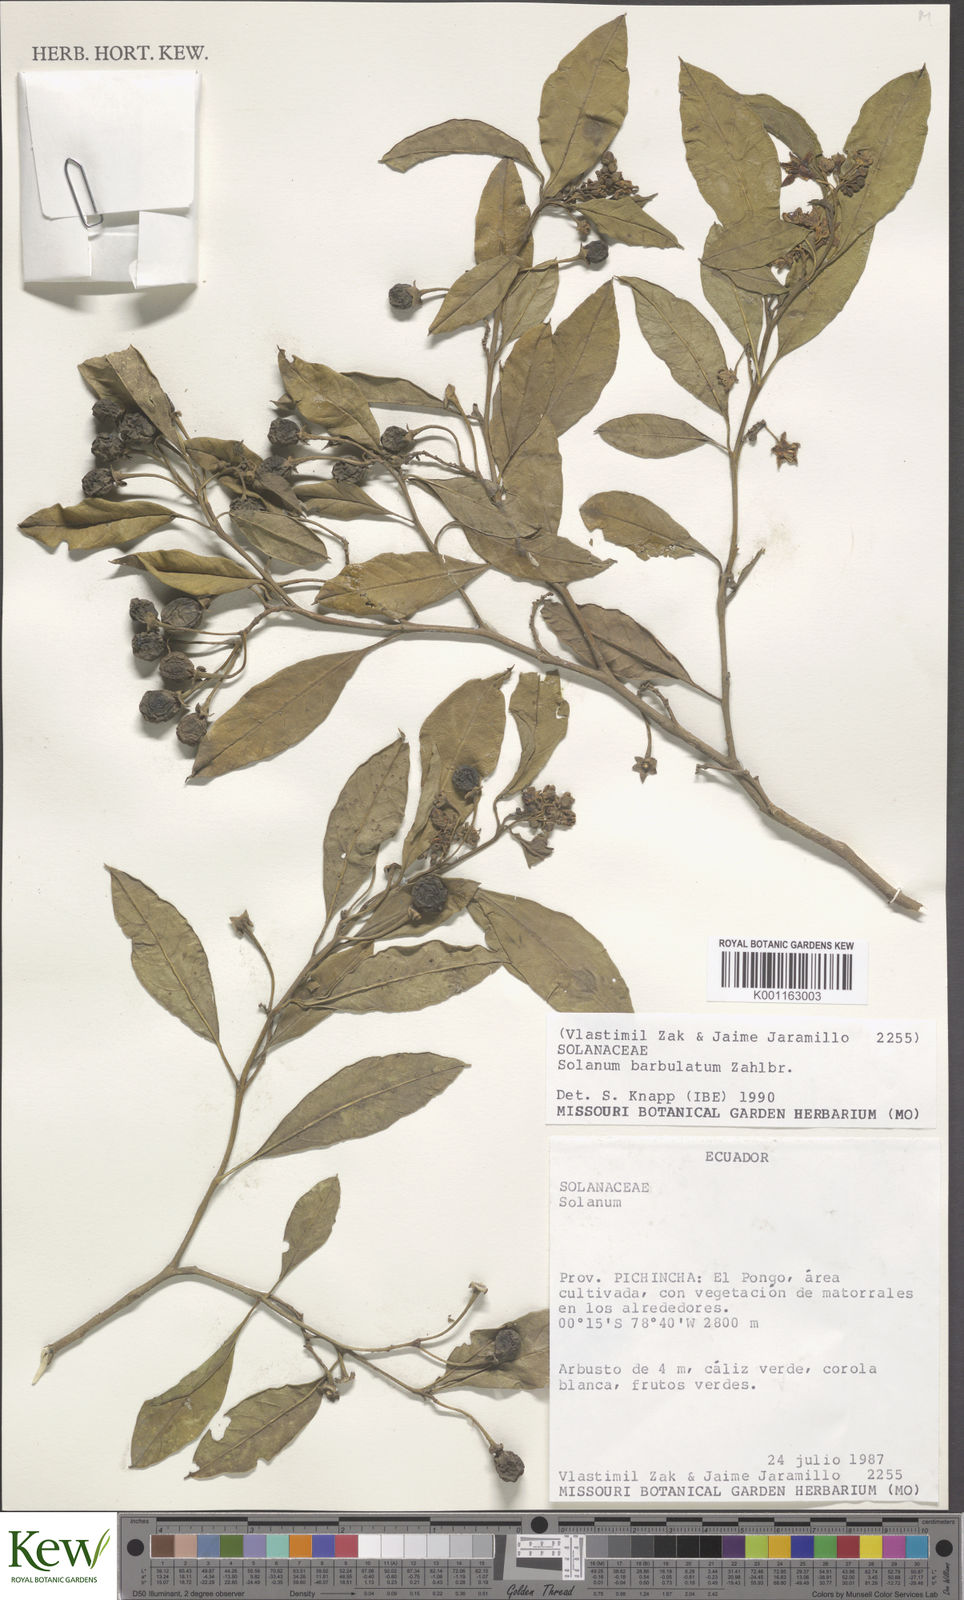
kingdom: Plantae
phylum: Tracheophyta
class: Magnoliopsida
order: Solanales
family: Solanaceae
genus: Solanum
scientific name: Solanum barbulatum
